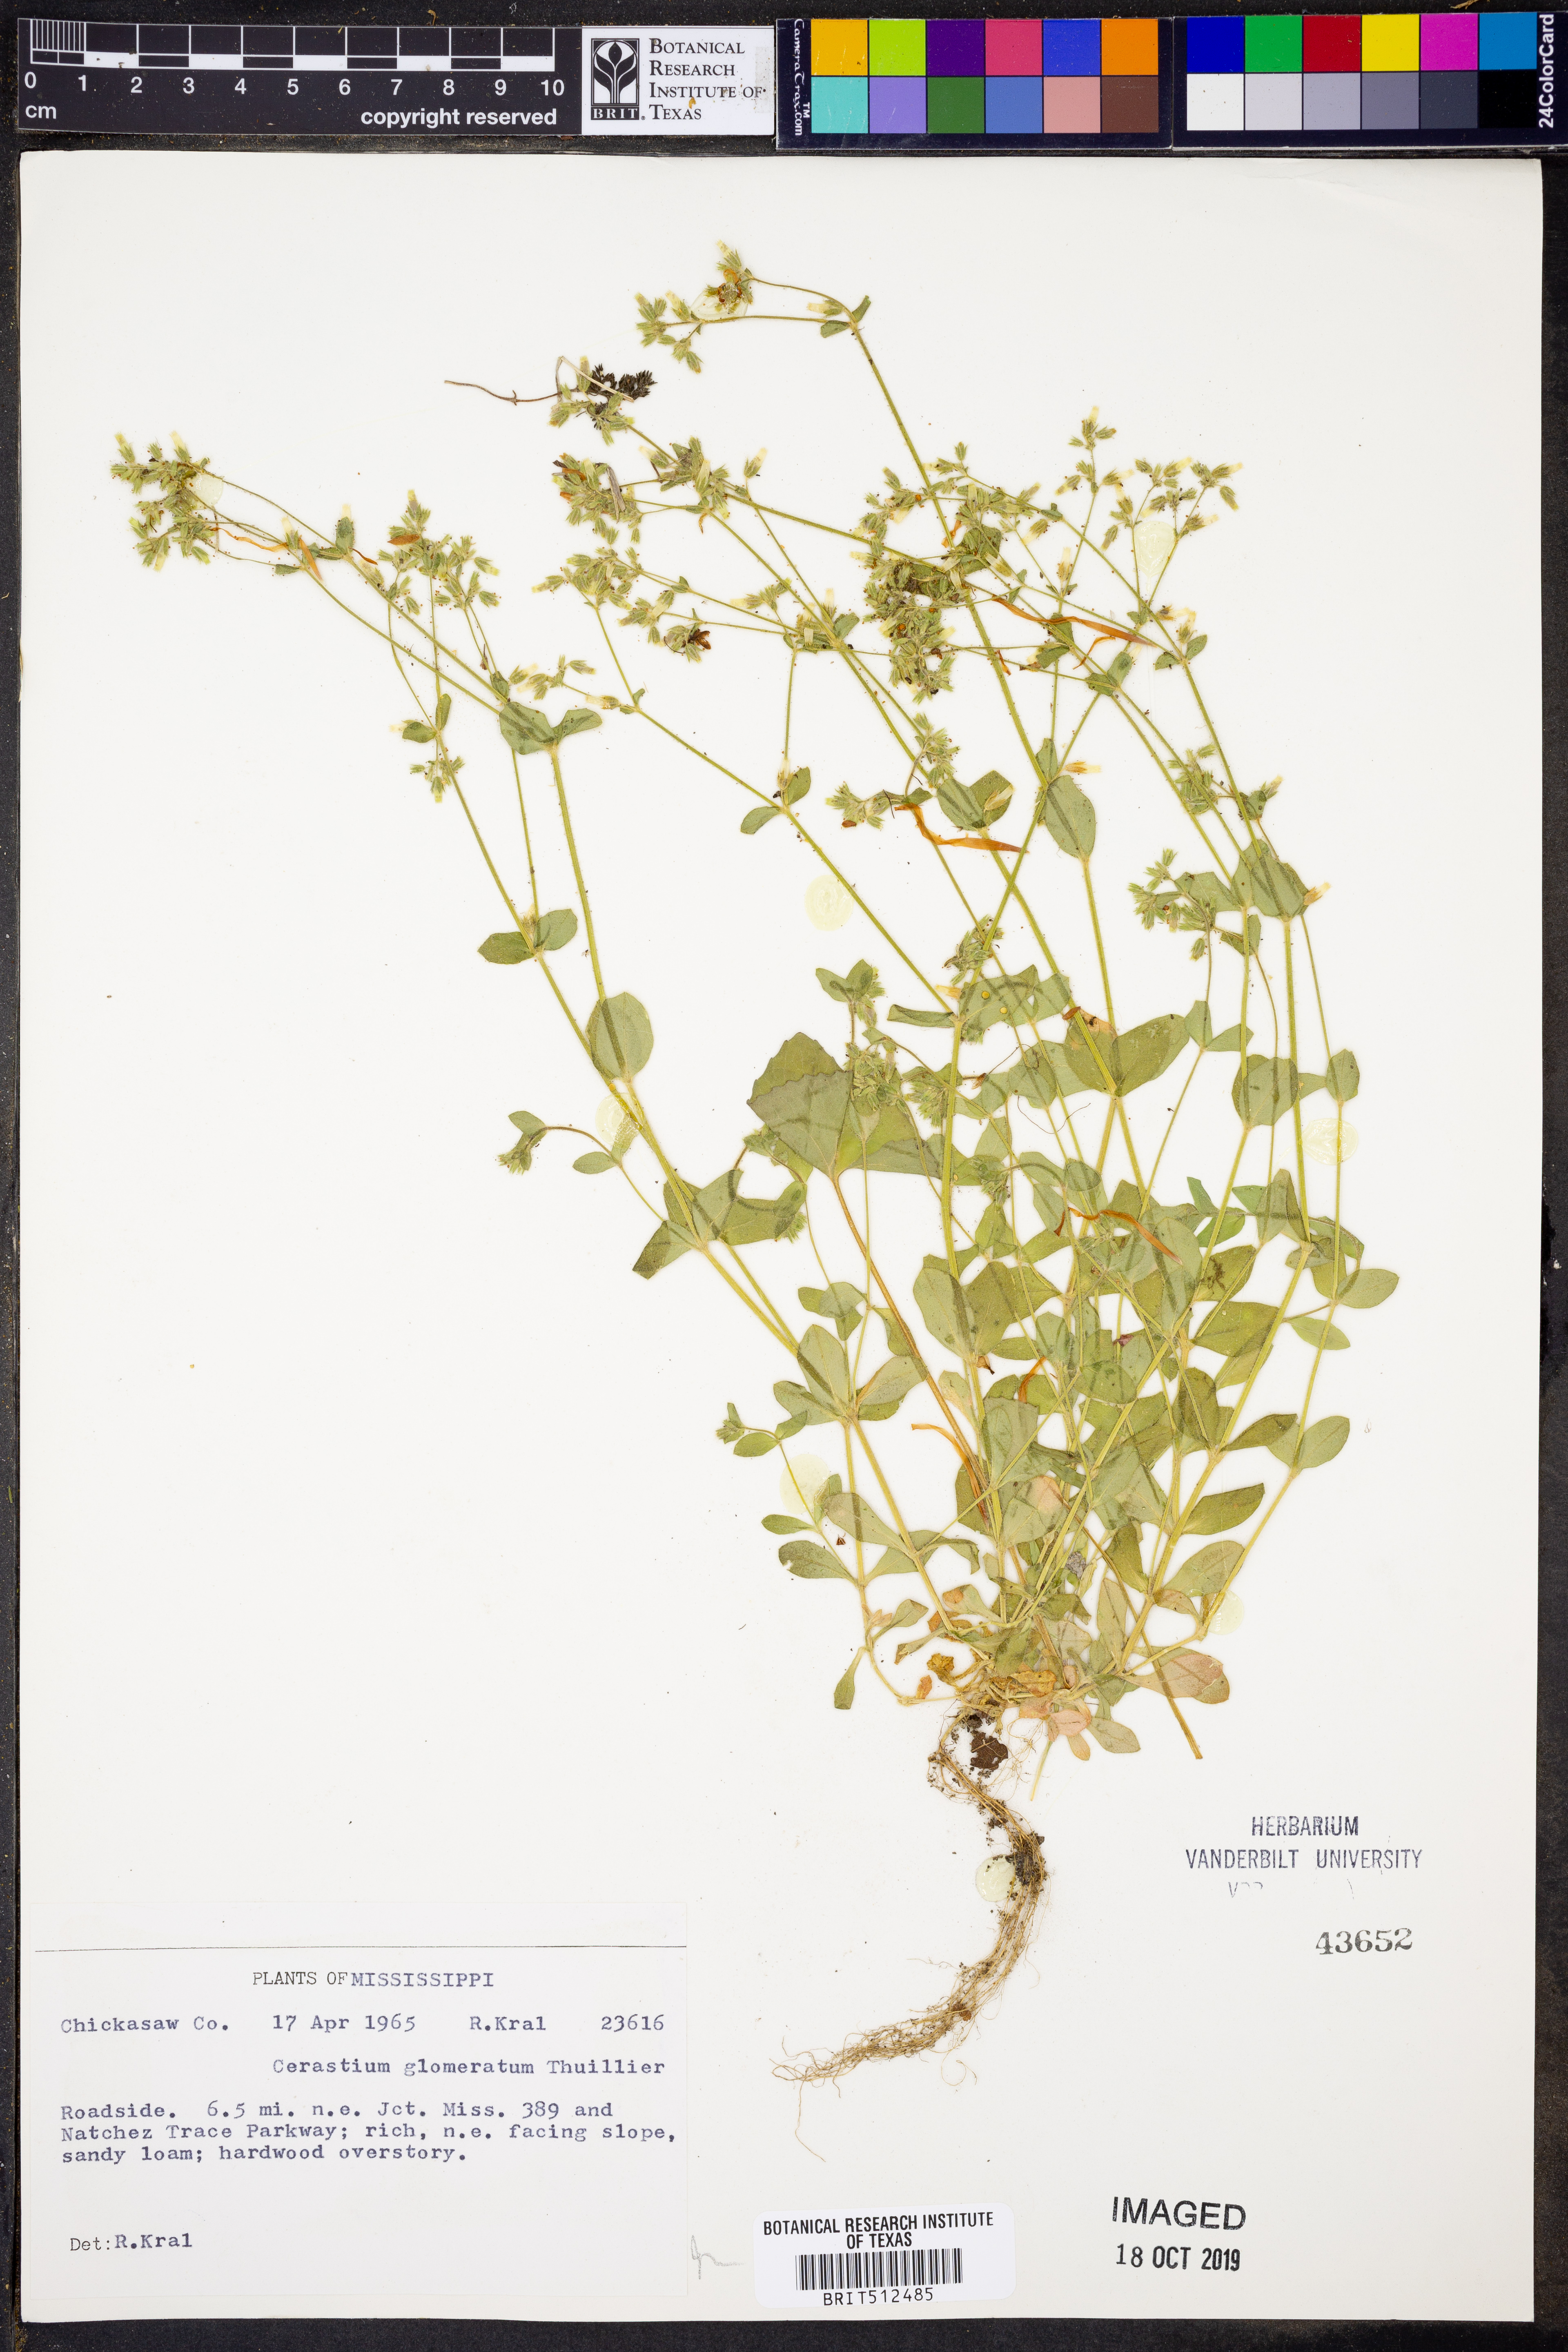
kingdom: Plantae
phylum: Tracheophyta
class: Magnoliopsida
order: Caryophyllales
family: Caryophyllaceae
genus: Cerastium
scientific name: Cerastium glomeratum
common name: Sticky chickweed
